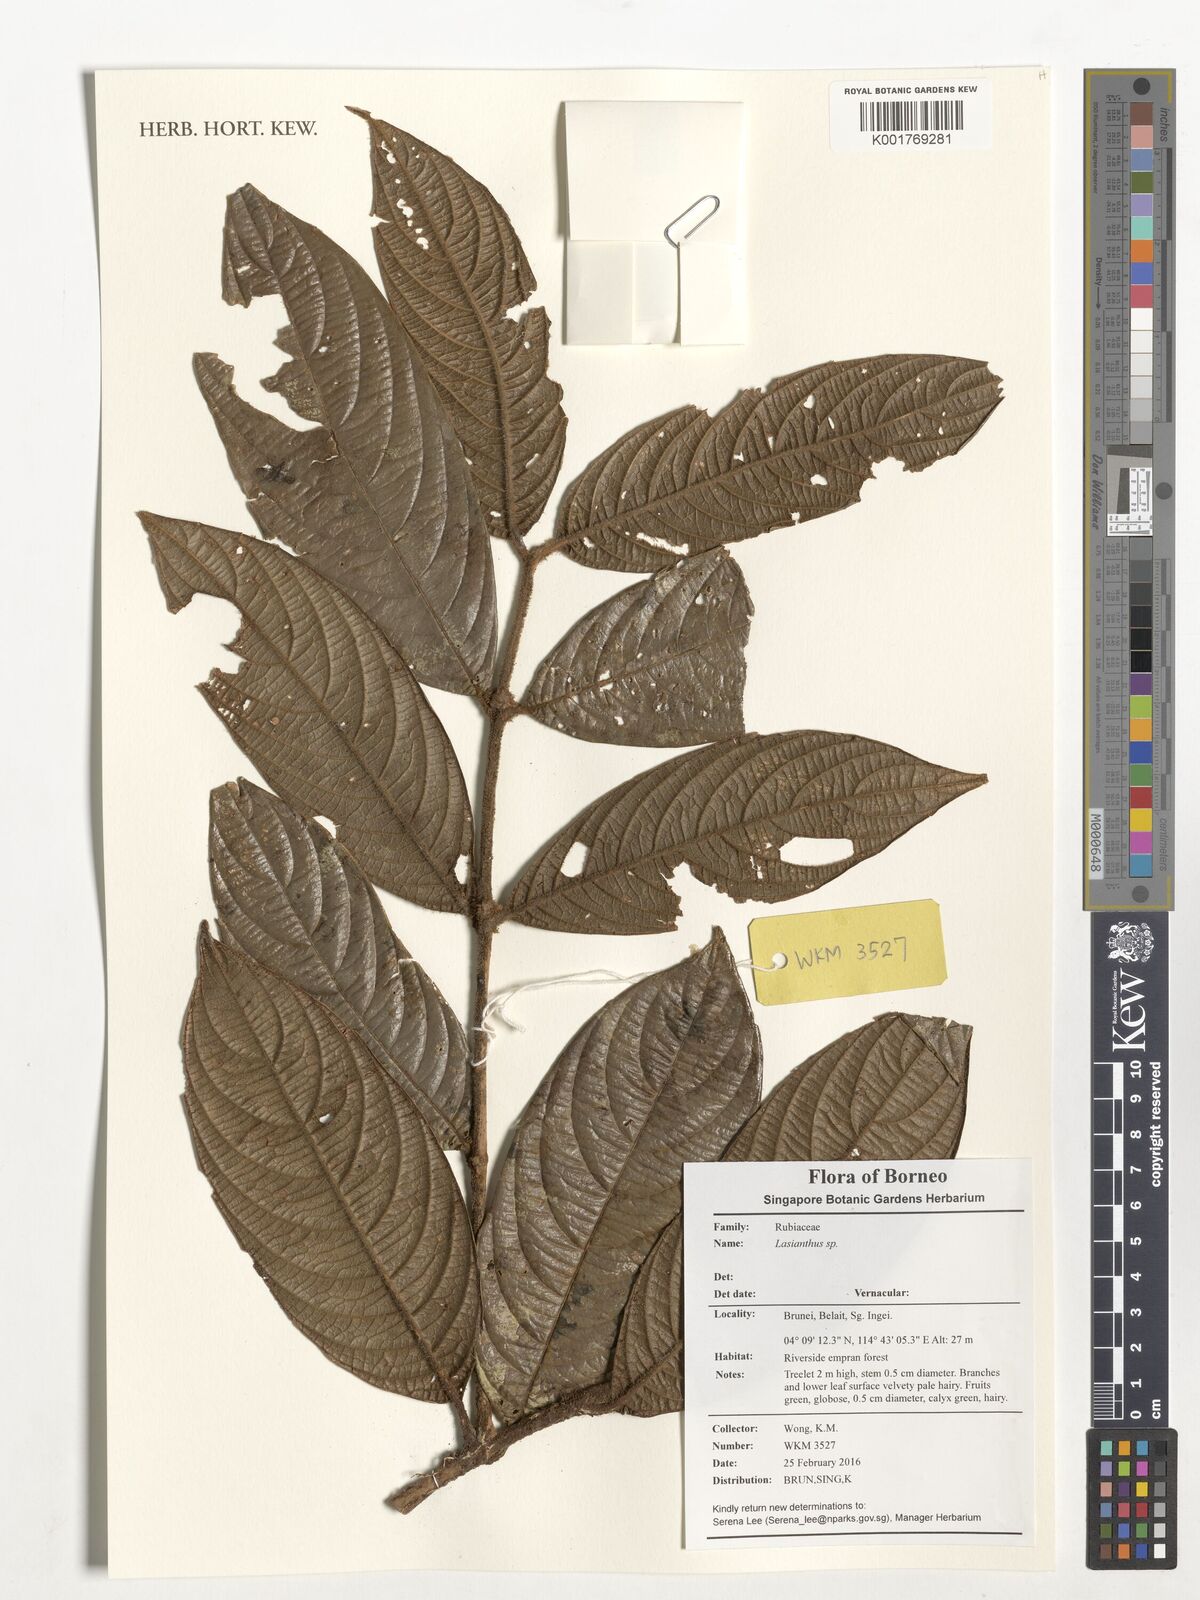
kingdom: Plantae
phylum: Tracheophyta
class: Magnoliopsida
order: Gentianales
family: Rubiaceae
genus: Lasianthus
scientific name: Lasianthus
